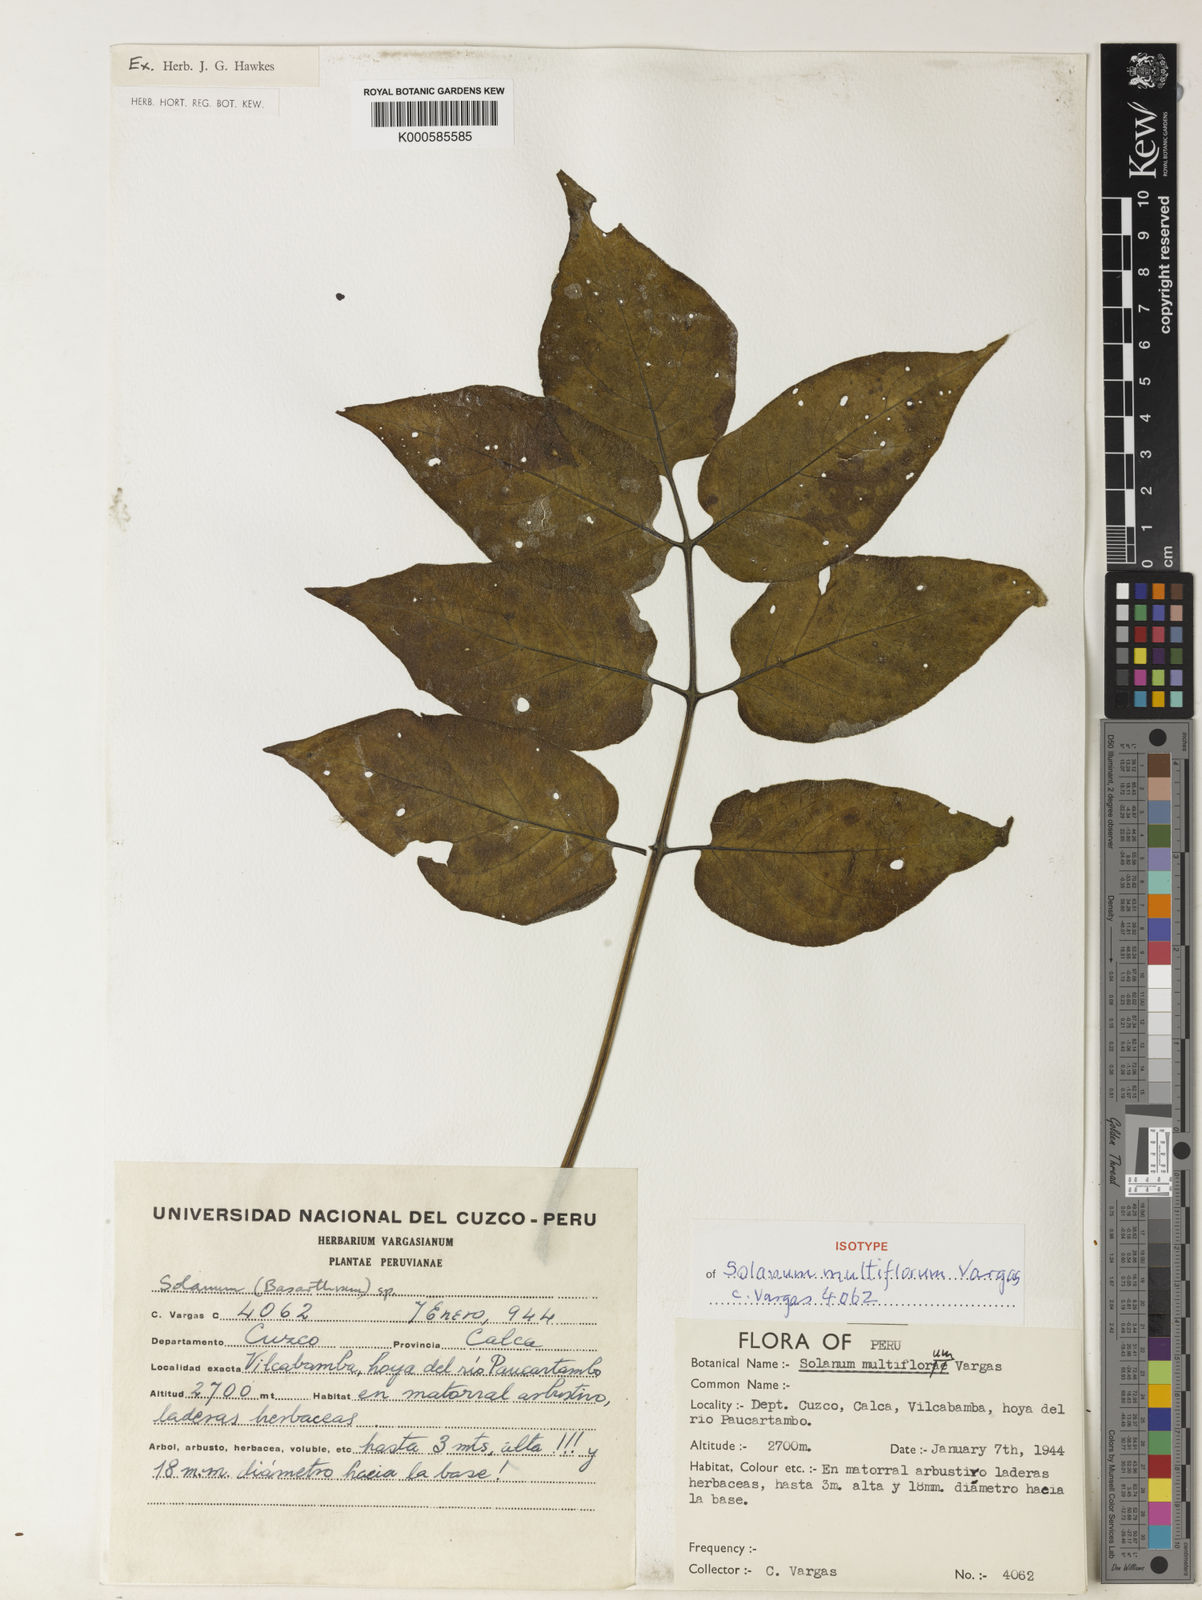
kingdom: Plantae
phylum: Tracheophyta
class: Magnoliopsida
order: Solanales
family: Solanaceae
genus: Solanum
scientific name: Solanum violaceimarmoratum
